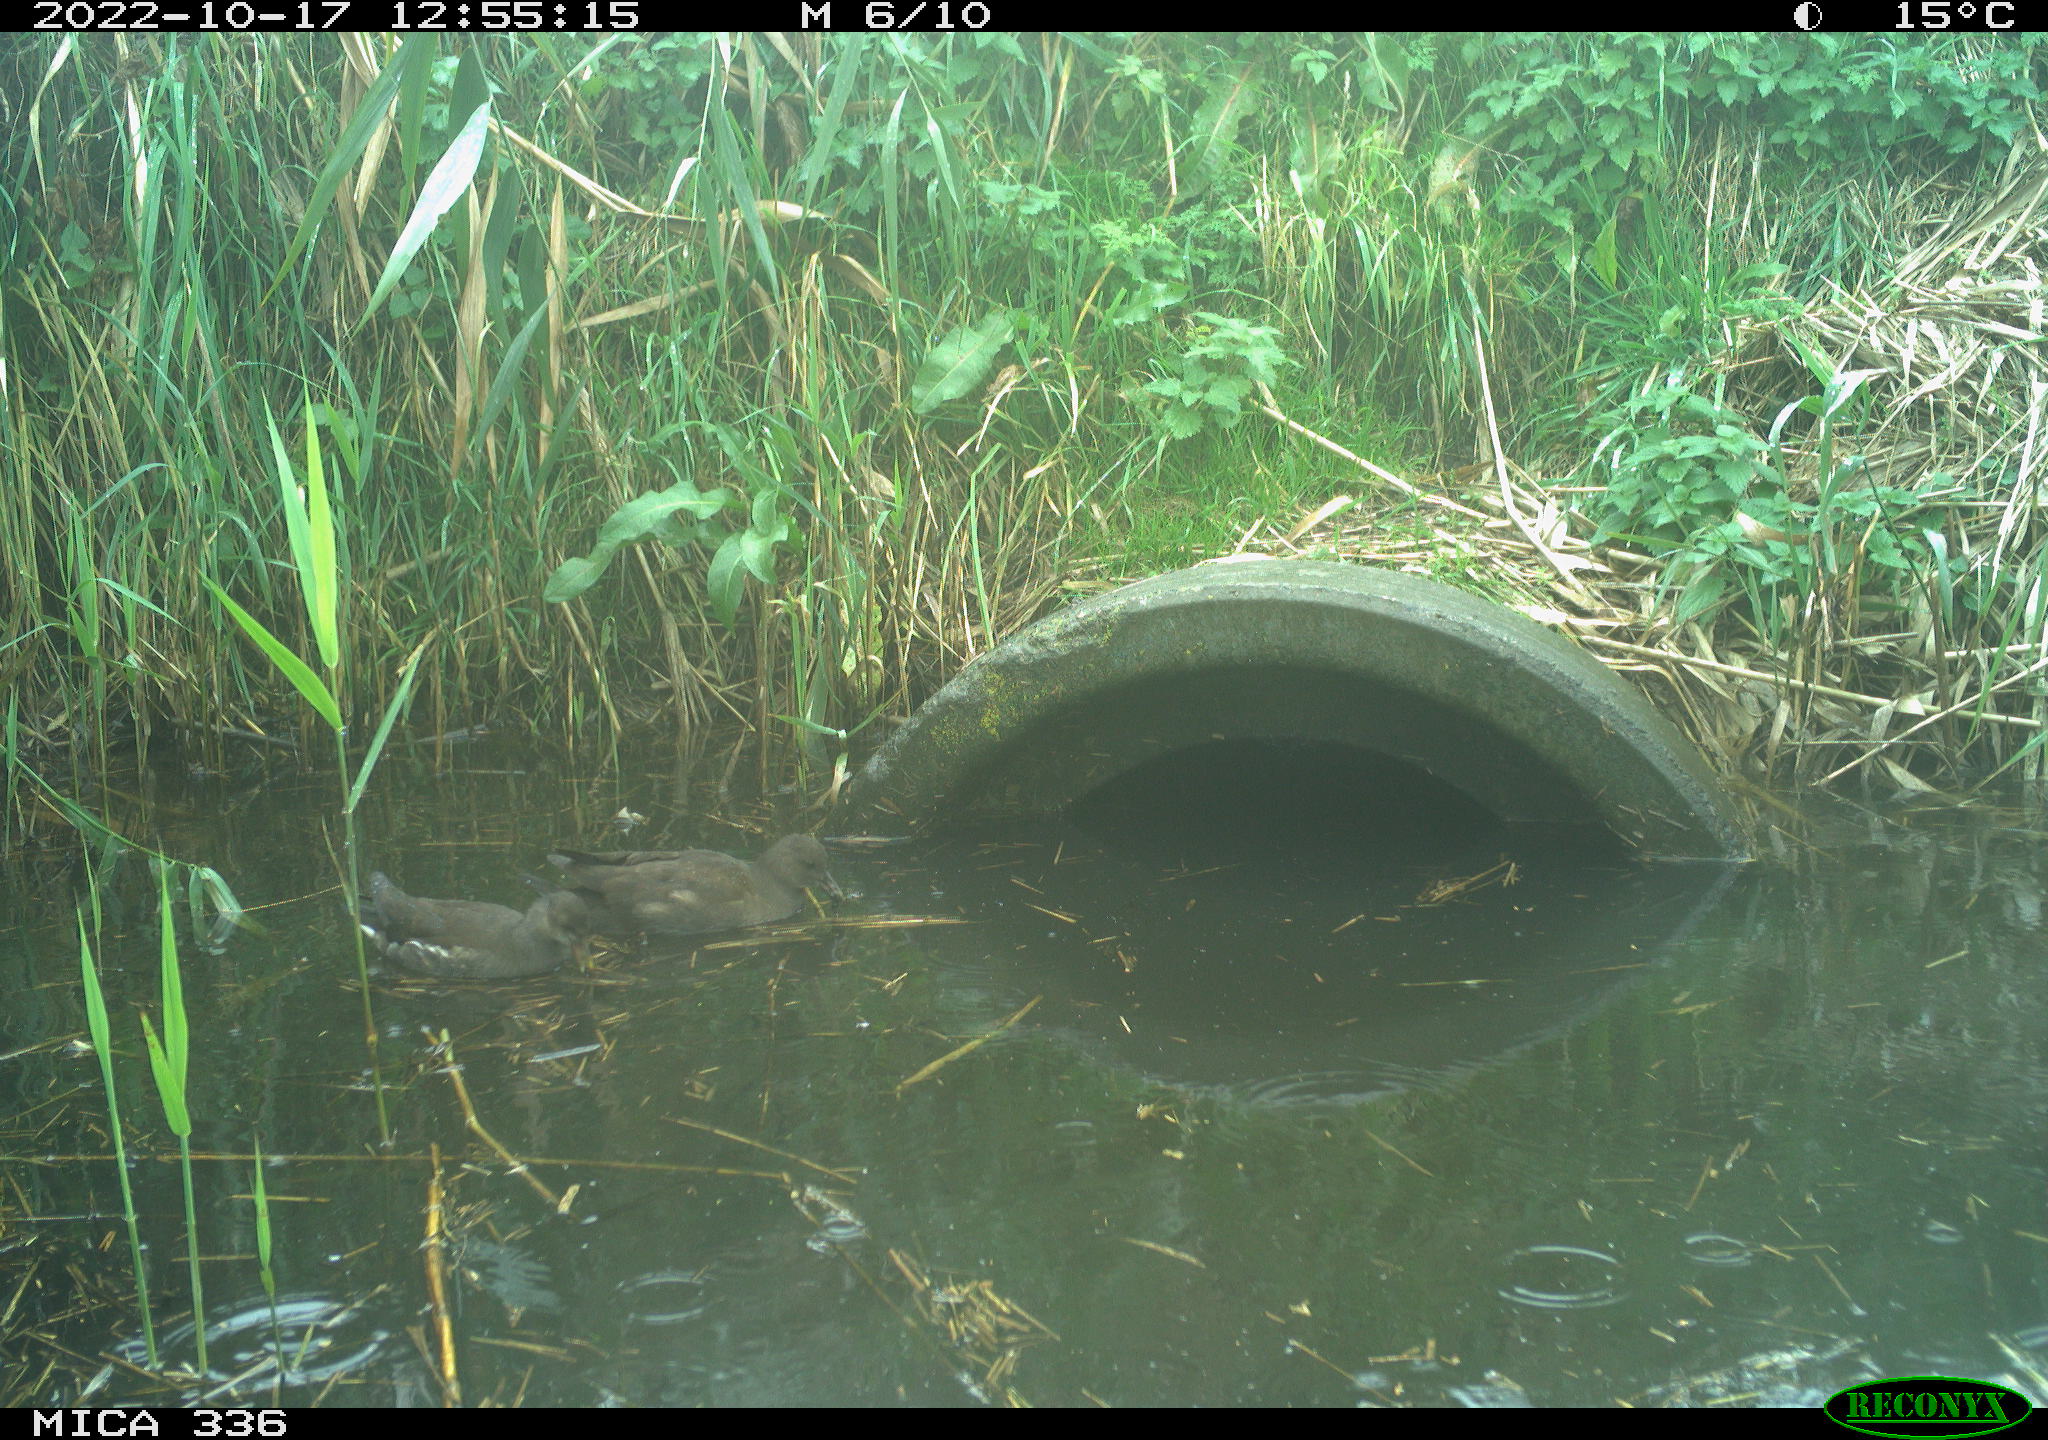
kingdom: Animalia
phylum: Chordata
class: Aves
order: Anseriformes
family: Anatidae
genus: Anas
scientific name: Anas
